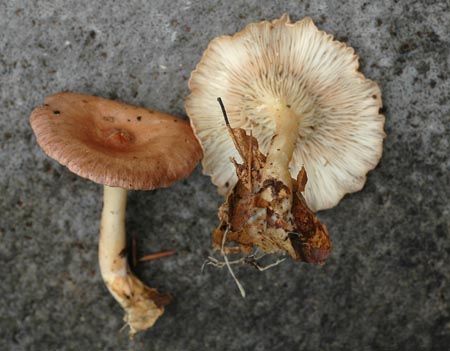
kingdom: Fungi
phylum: Basidiomycota
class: Agaricomycetes
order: Agaricales
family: Tricholomataceae
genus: Infundibulicybe
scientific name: Infundibulicybe gibba
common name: almindelig tragthat
